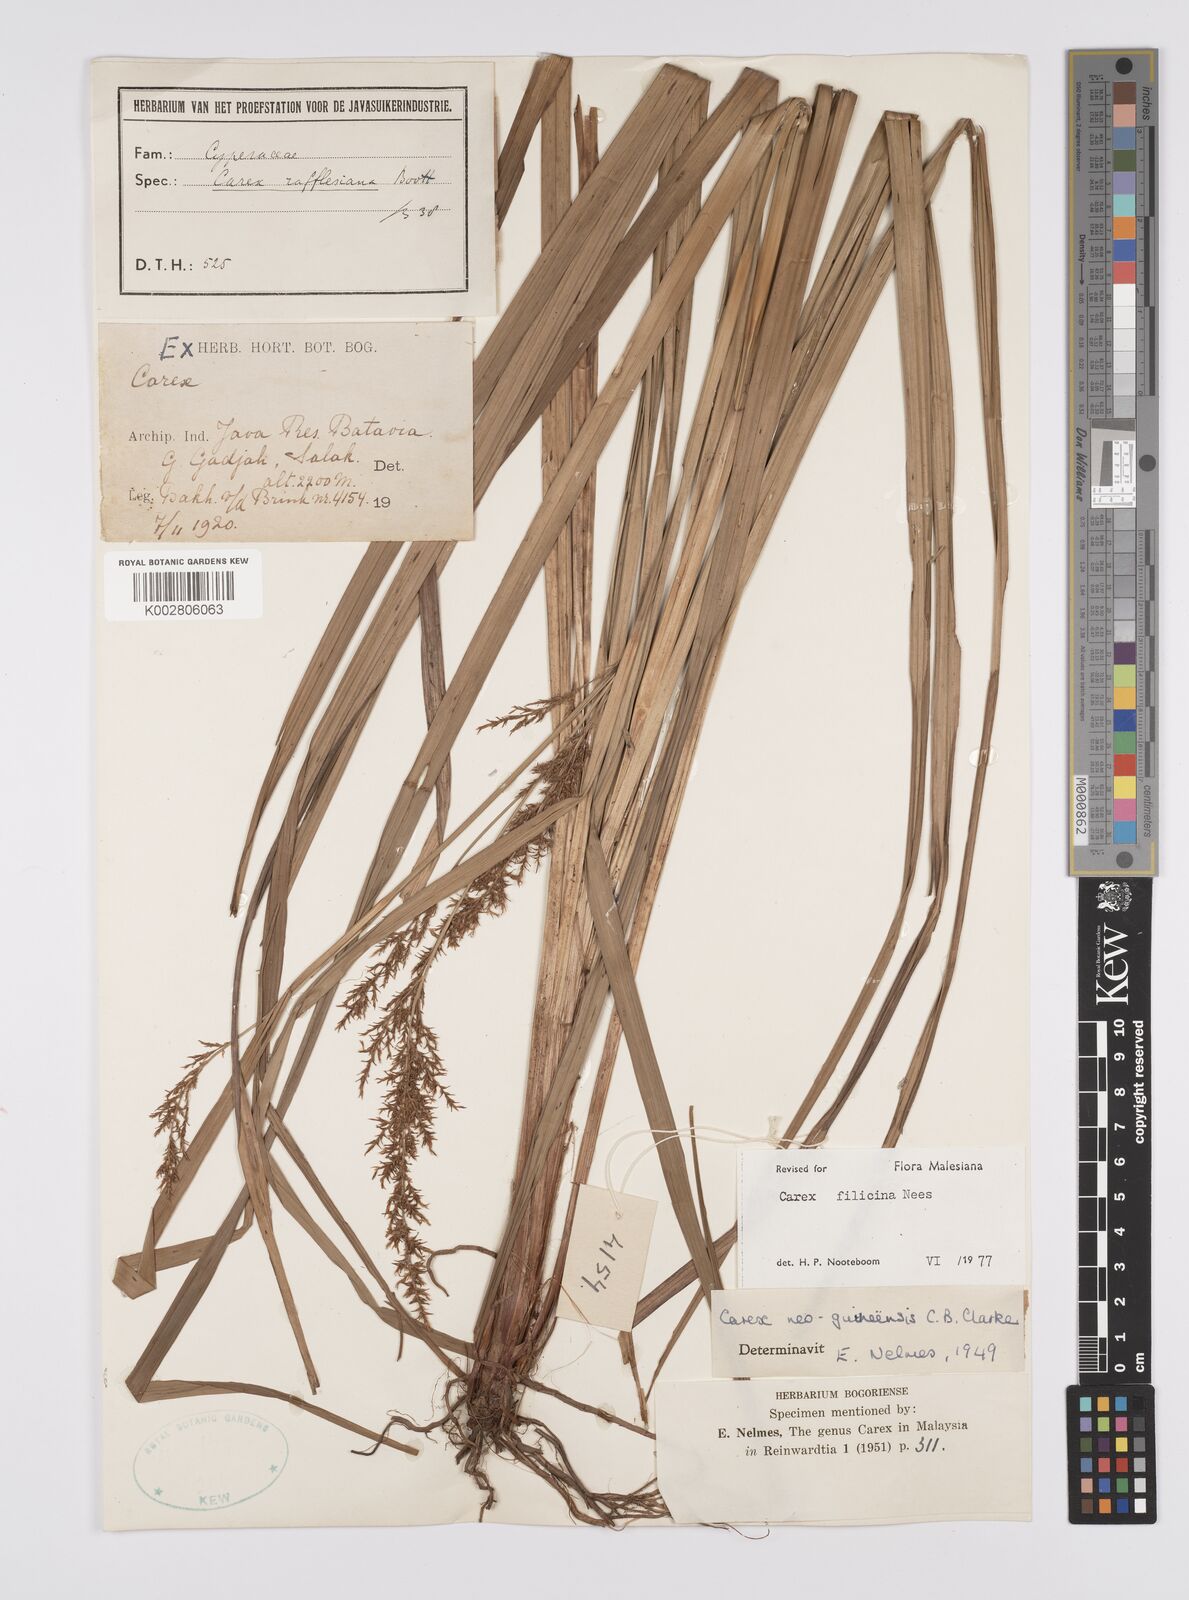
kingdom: Plantae
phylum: Tracheophyta
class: Liliopsida
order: Poales
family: Cyperaceae
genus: Carex
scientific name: Carex filicina
